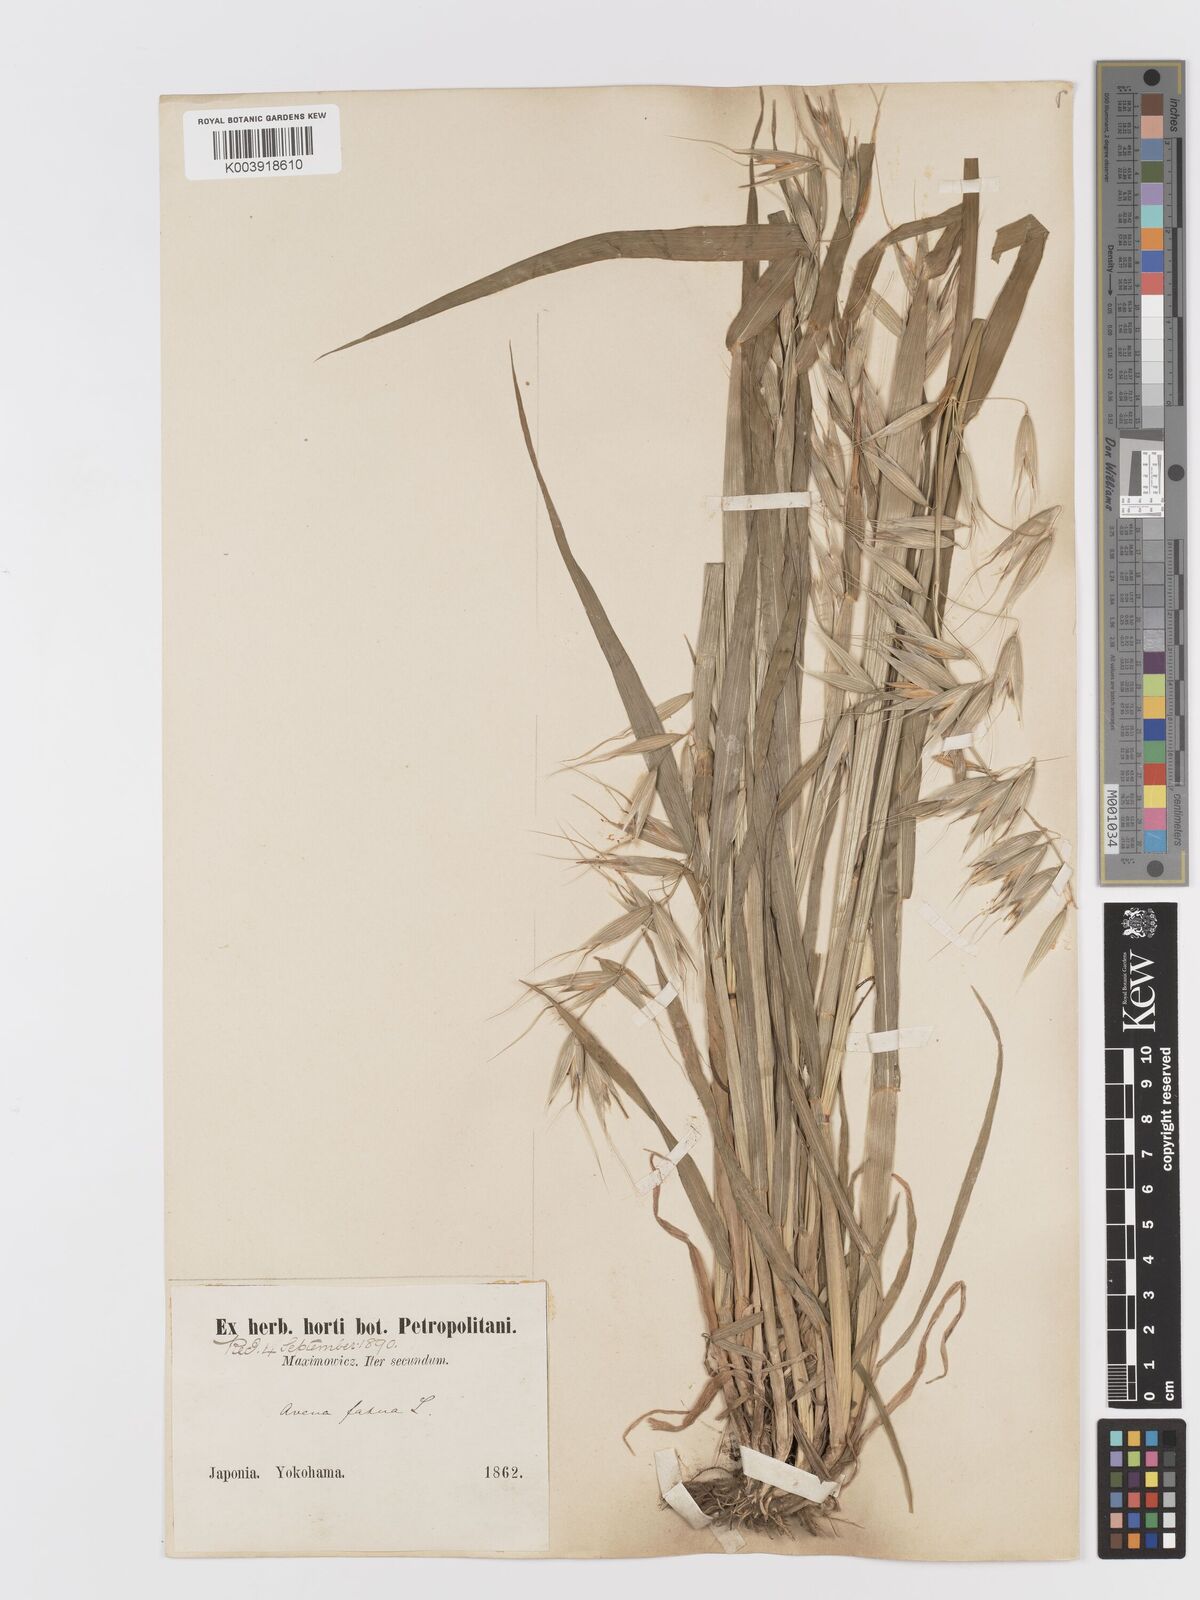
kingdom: Plantae
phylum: Tracheophyta
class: Liliopsida
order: Poales
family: Poaceae
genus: Avena
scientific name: Avena fatua
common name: Wild oat
